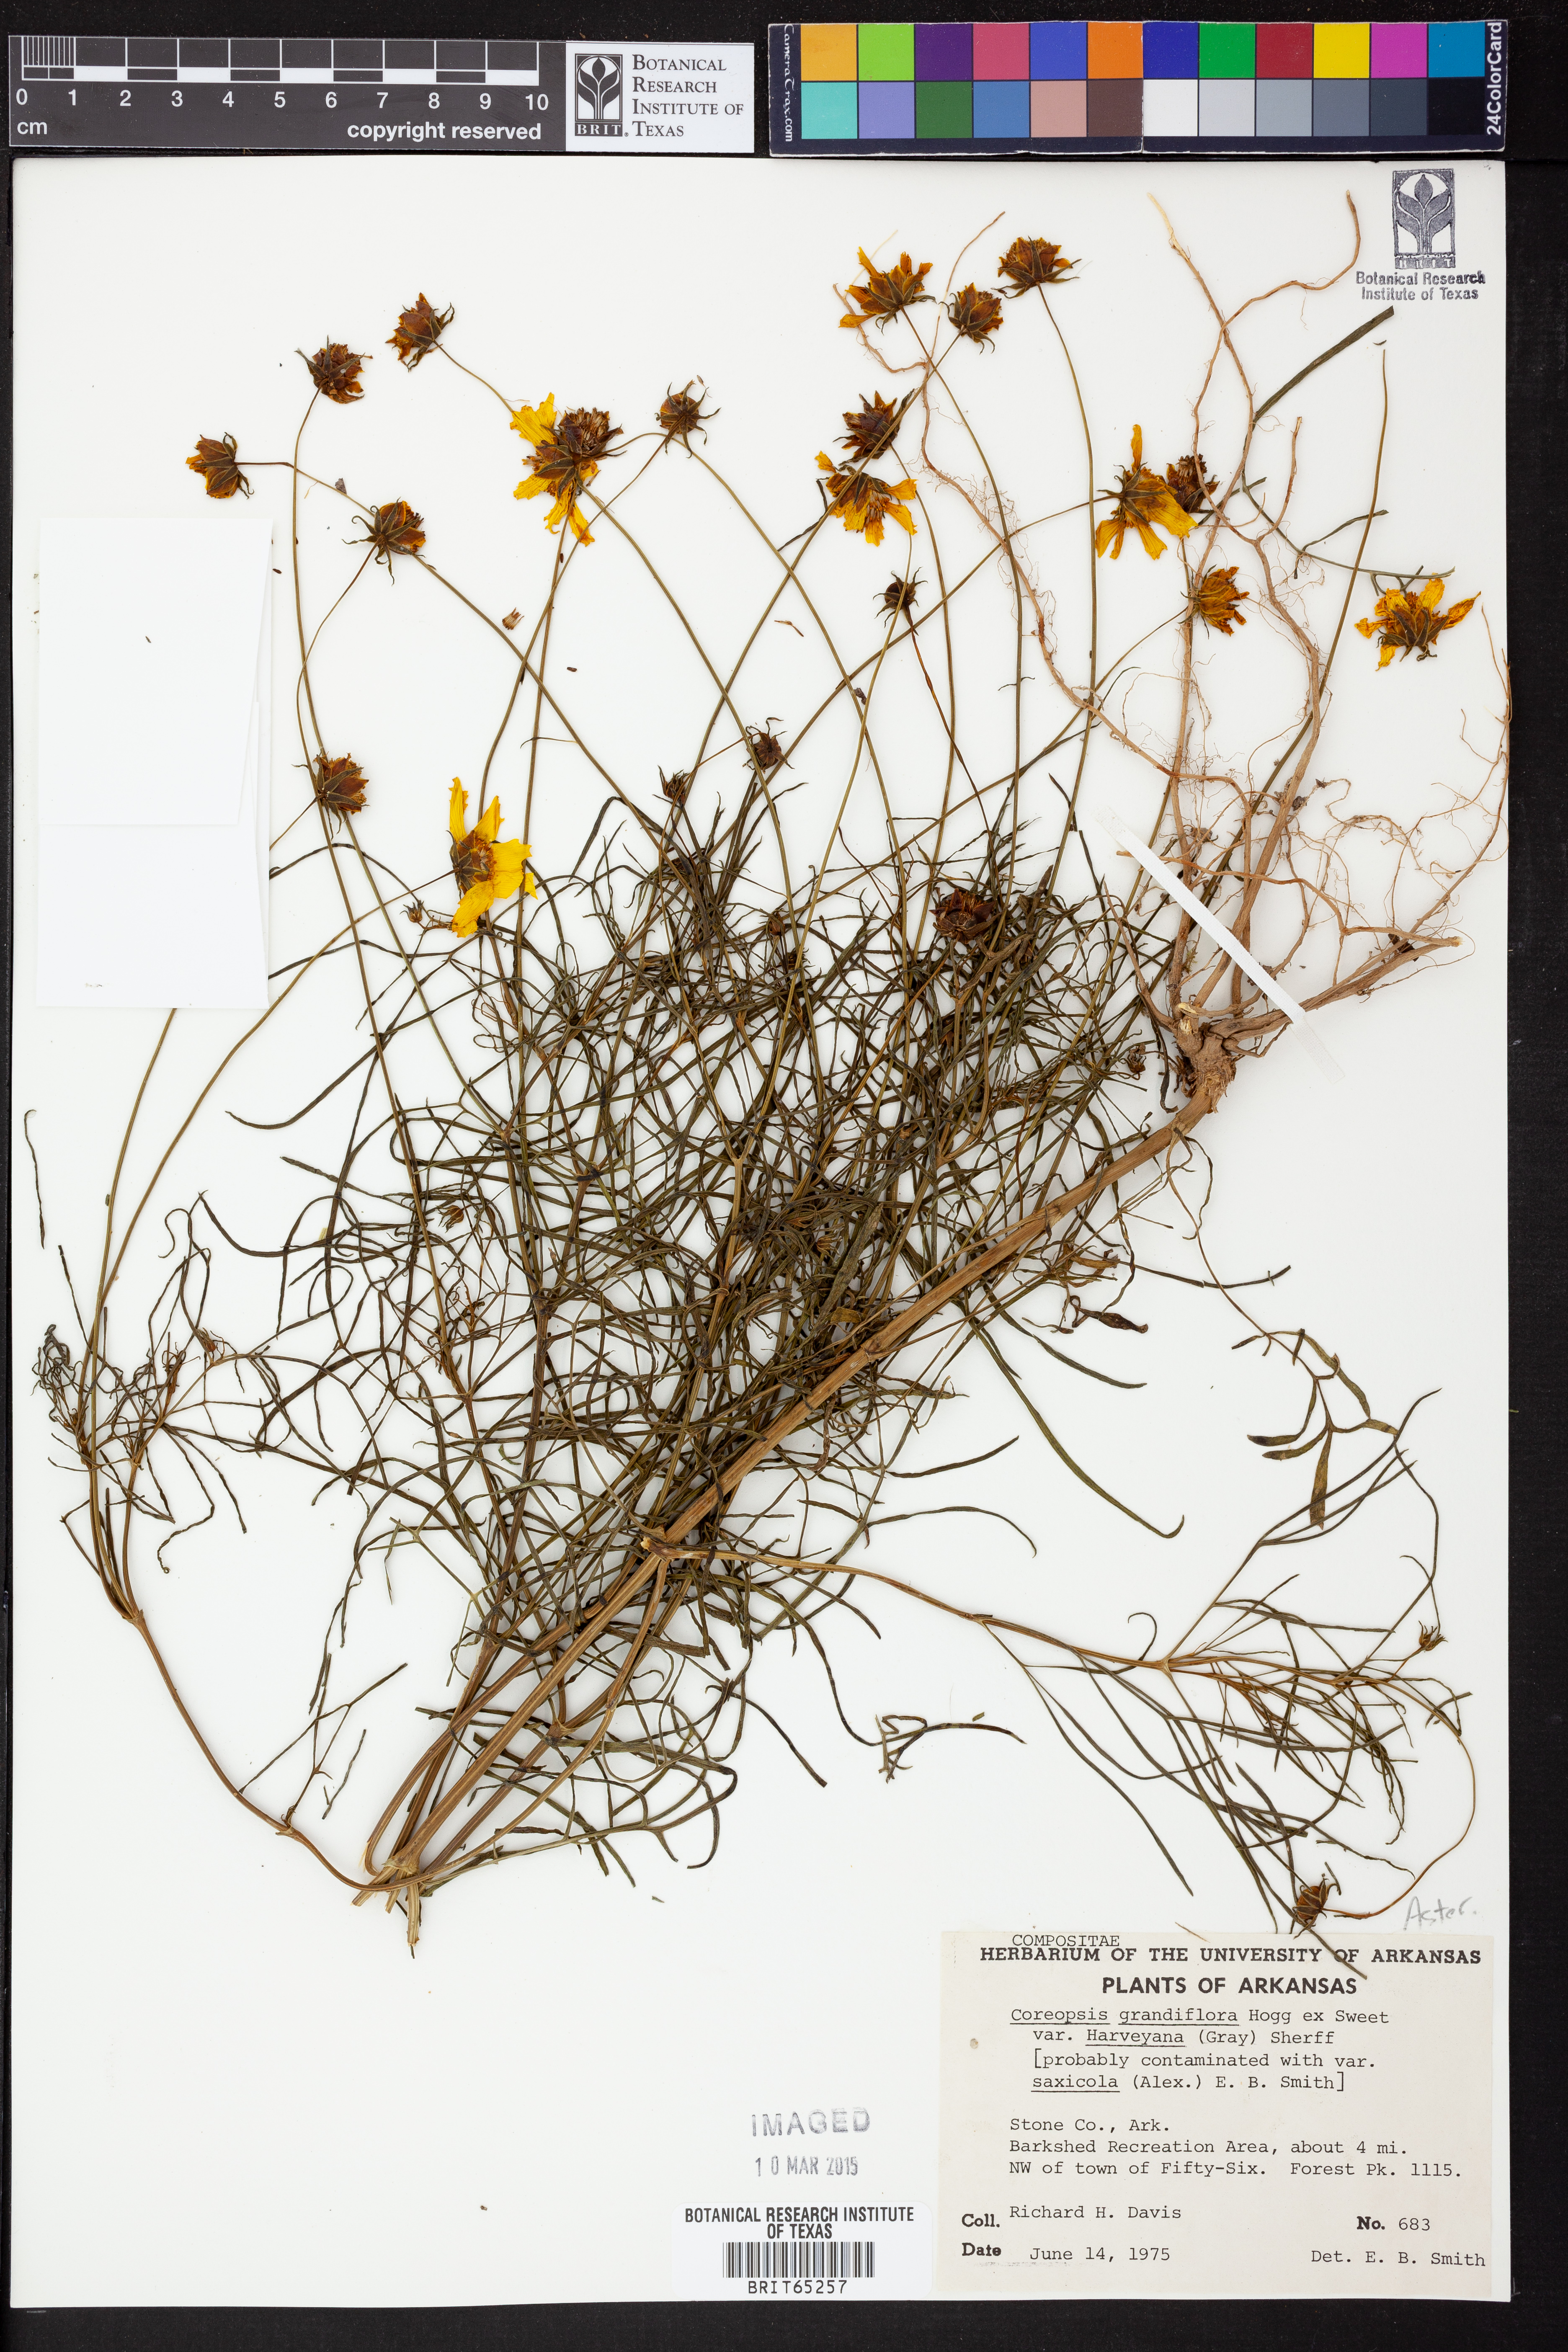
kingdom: Plantae
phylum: Tracheophyta
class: Magnoliopsida
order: Asterales
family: Asteraceae
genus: Coreopsis
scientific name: Coreopsis grandiflora
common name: Large-flowered tickseed
